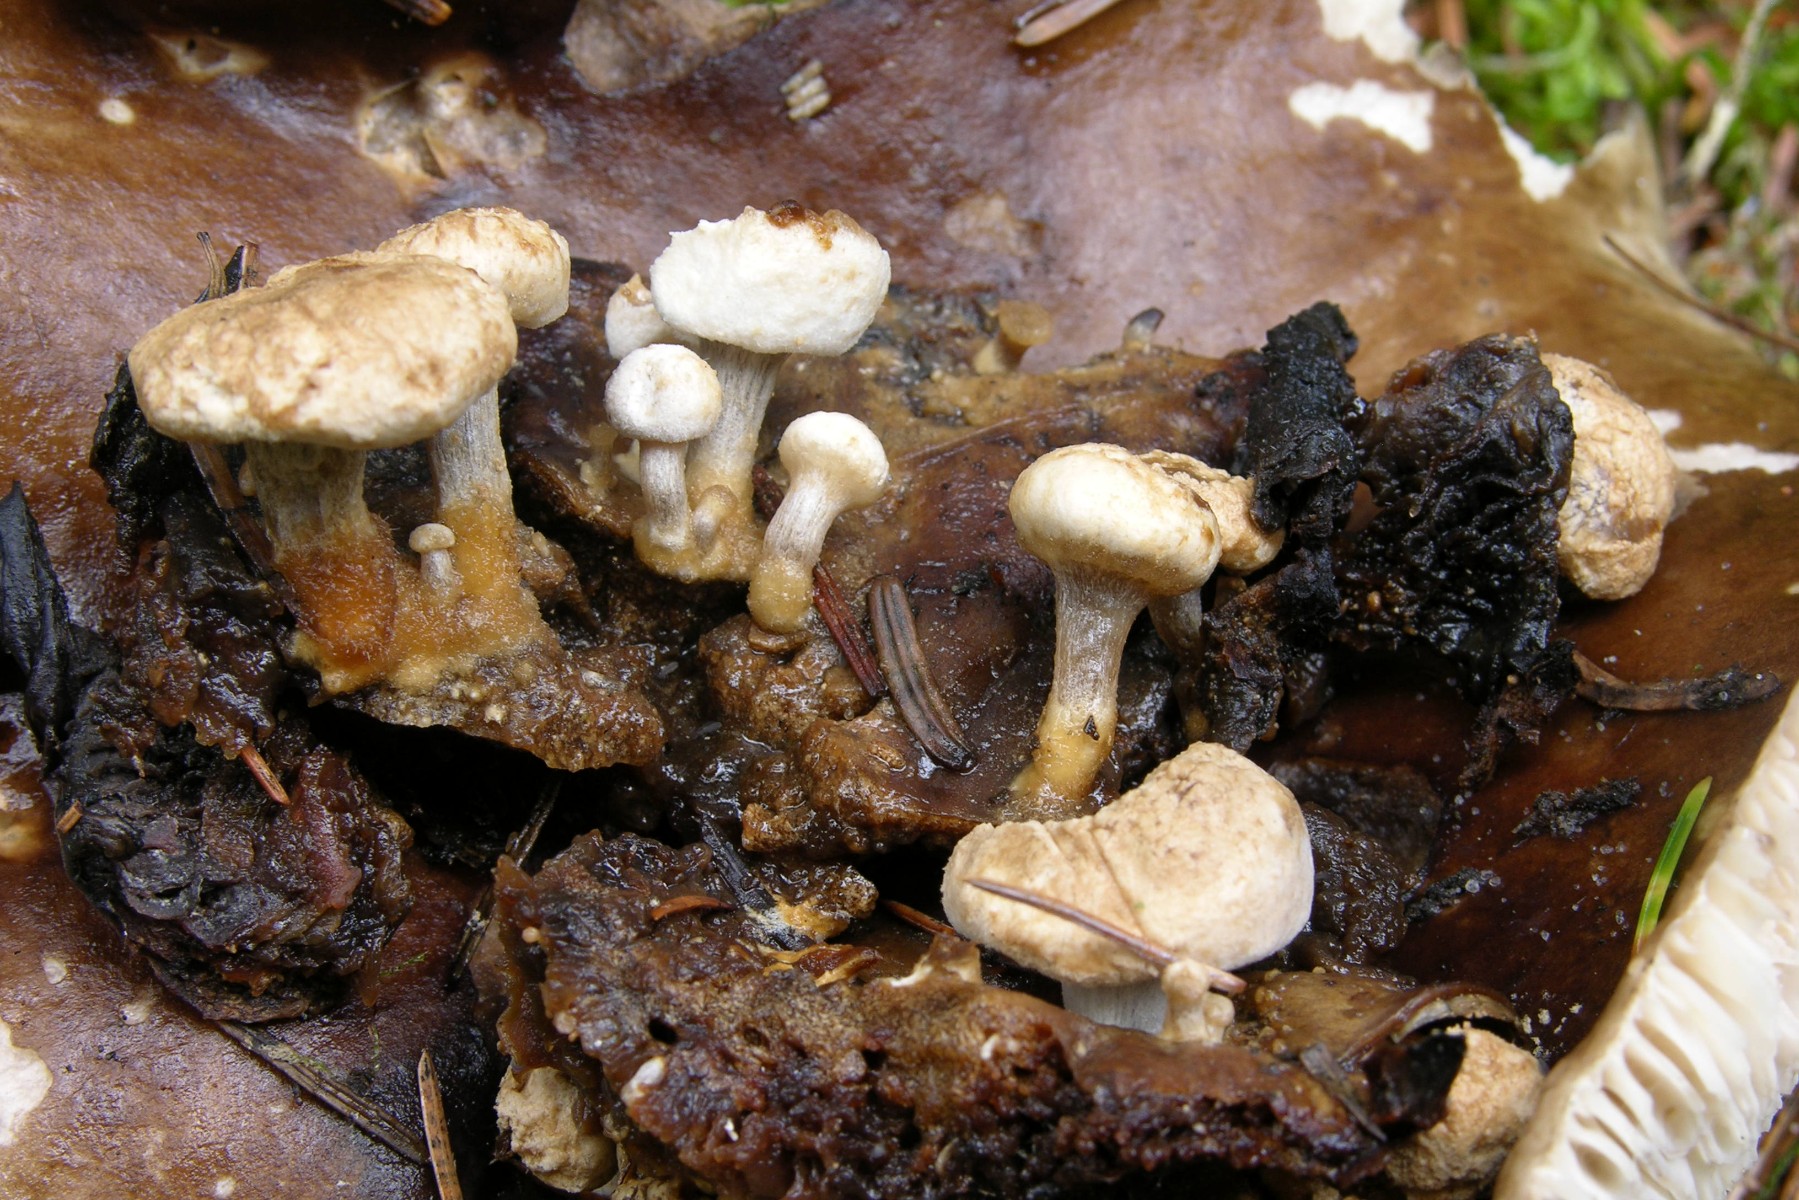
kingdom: Fungi
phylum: Basidiomycota
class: Agaricomycetes
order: Agaricales
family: Lyophyllaceae
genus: Asterophora
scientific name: Asterophora lycoperdoides
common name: brunpudret snyltehat
